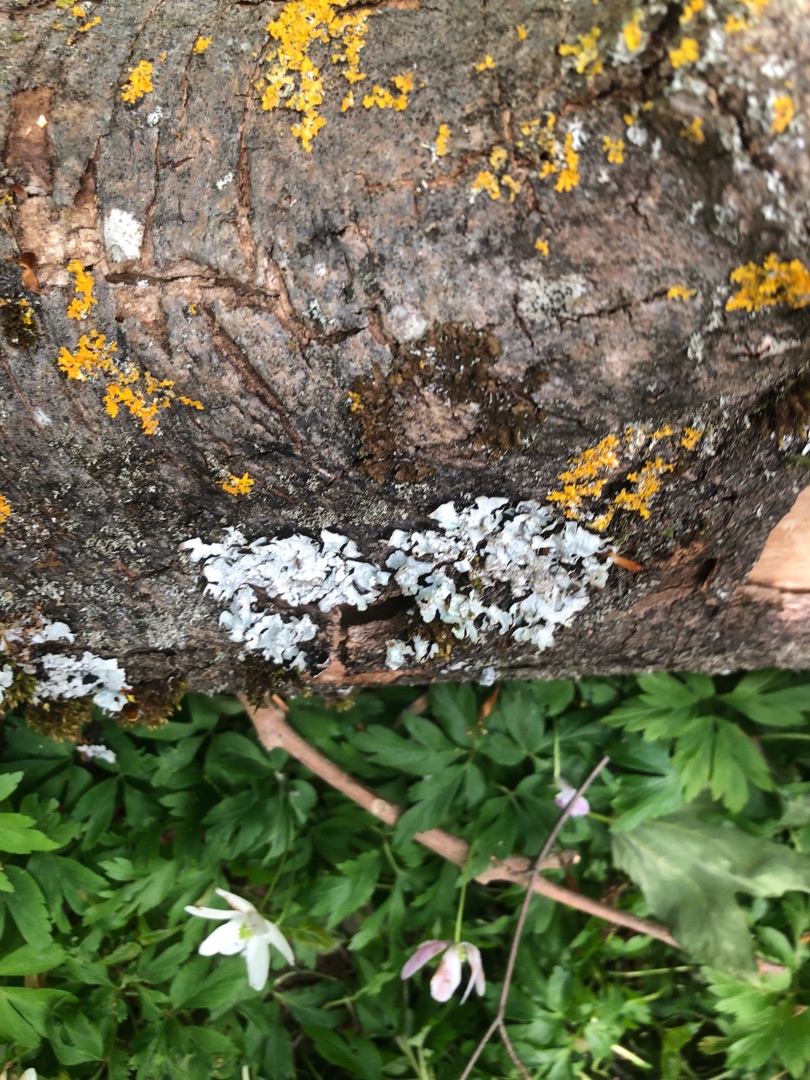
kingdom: Fungi
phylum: Ascomycota
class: Lecanoromycetes
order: Lecanorales
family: Parmeliaceae
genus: Parmelia
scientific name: Parmelia sulcata
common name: Rynket skållav
